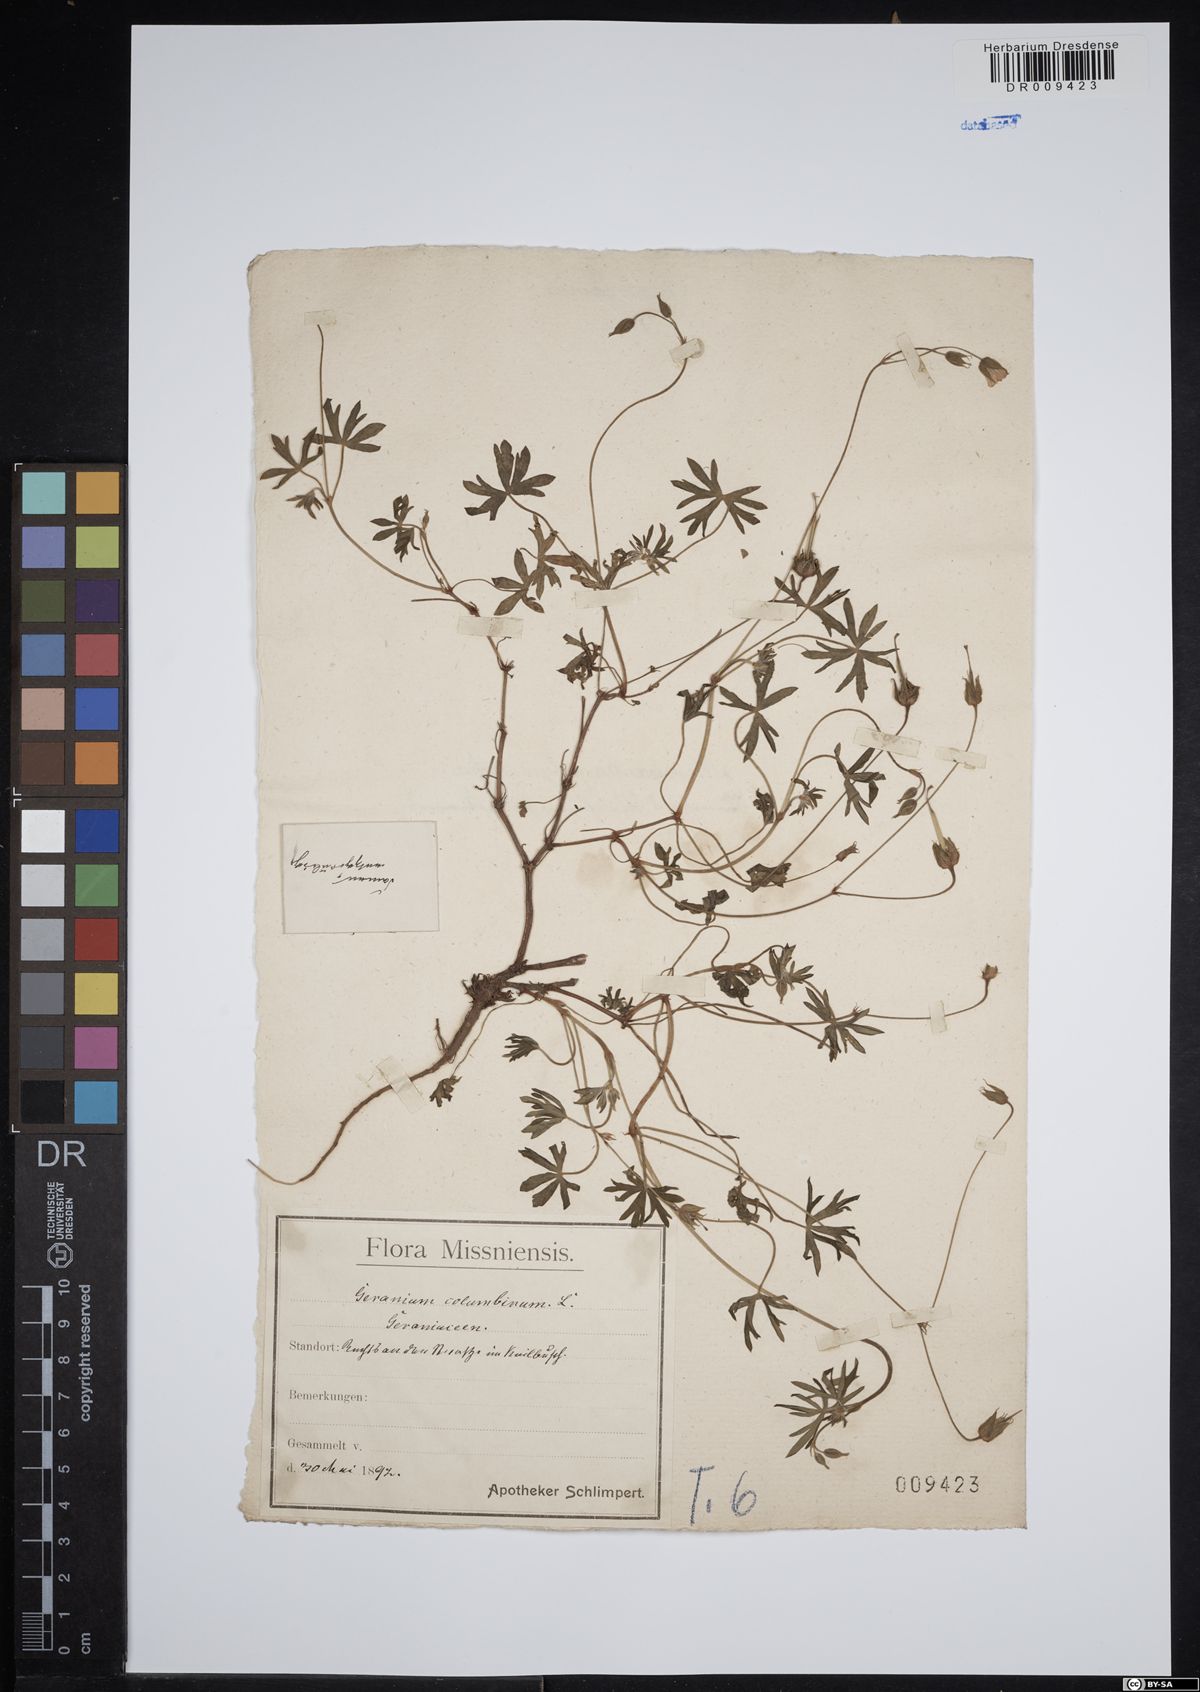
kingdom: Plantae
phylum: Tracheophyta
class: Magnoliopsida
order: Geraniales
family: Geraniaceae
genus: Geranium
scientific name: Geranium columbinum
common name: Long-stalked crane's-bill
